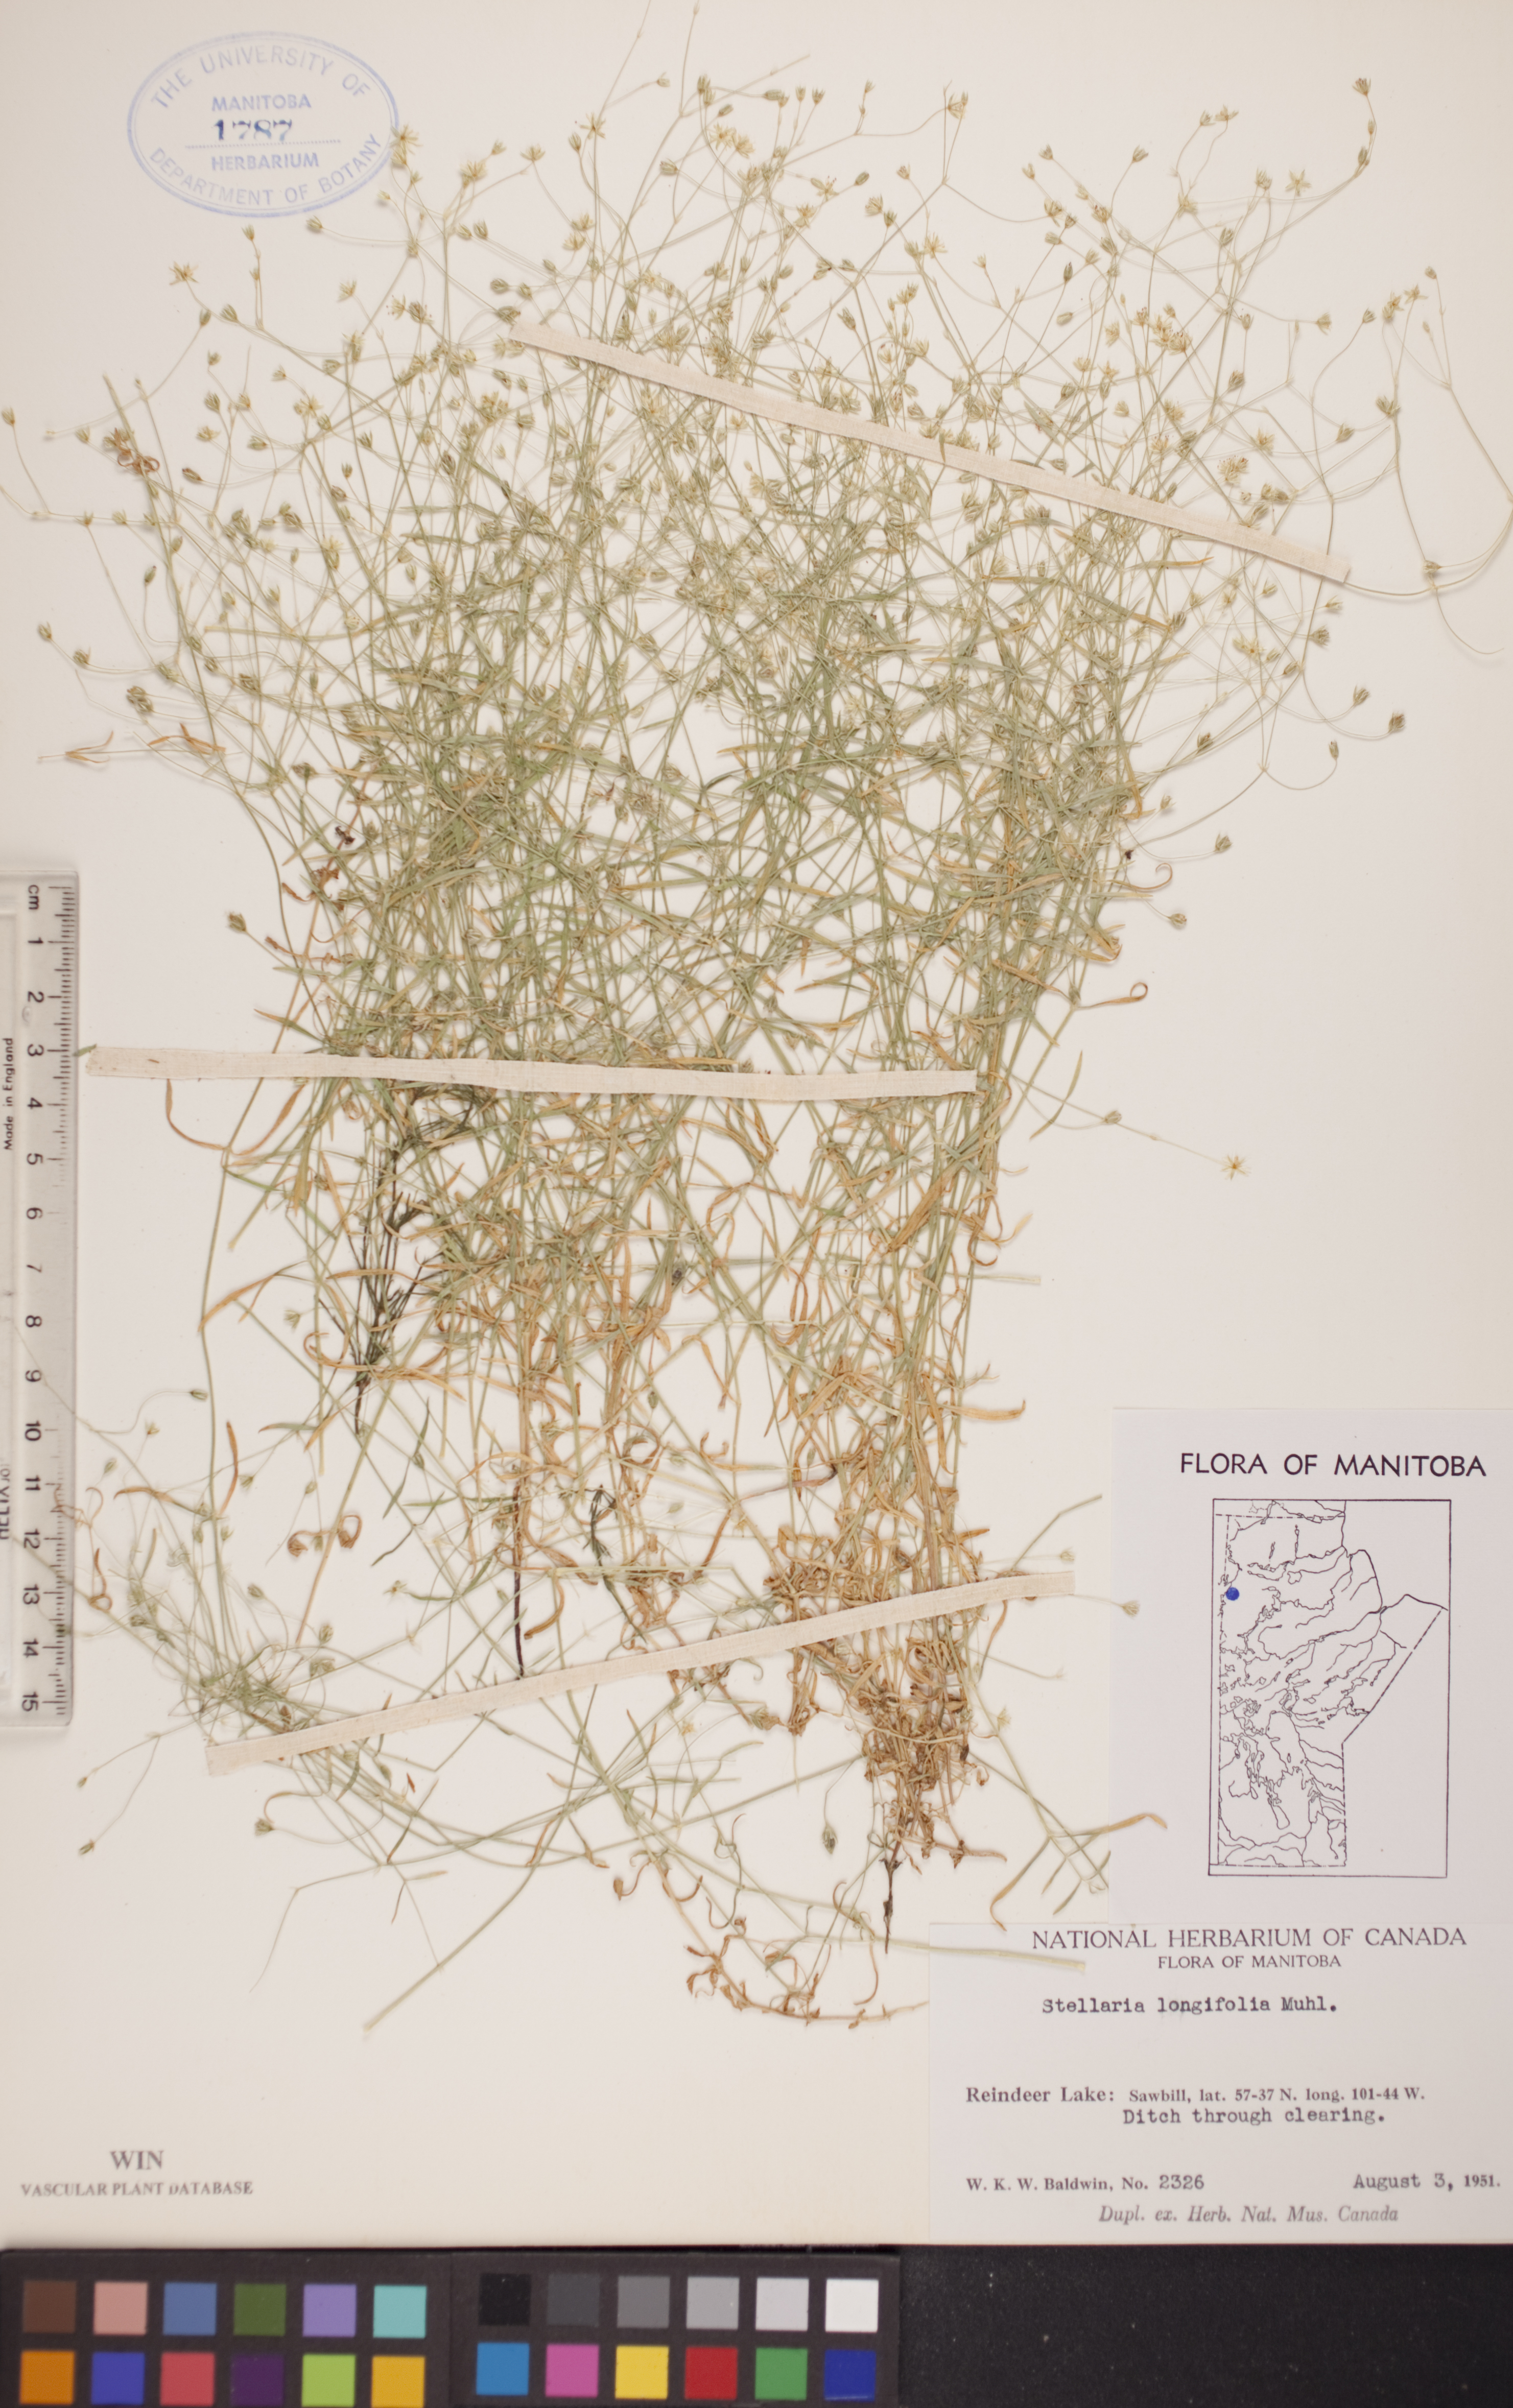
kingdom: Plantae
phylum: Tracheophyta
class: Magnoliopsida
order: Caryophyllales
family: Caryophyllaceae
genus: Stellaria
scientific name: Stellaria longifolia
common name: Long-leaved chickweed
